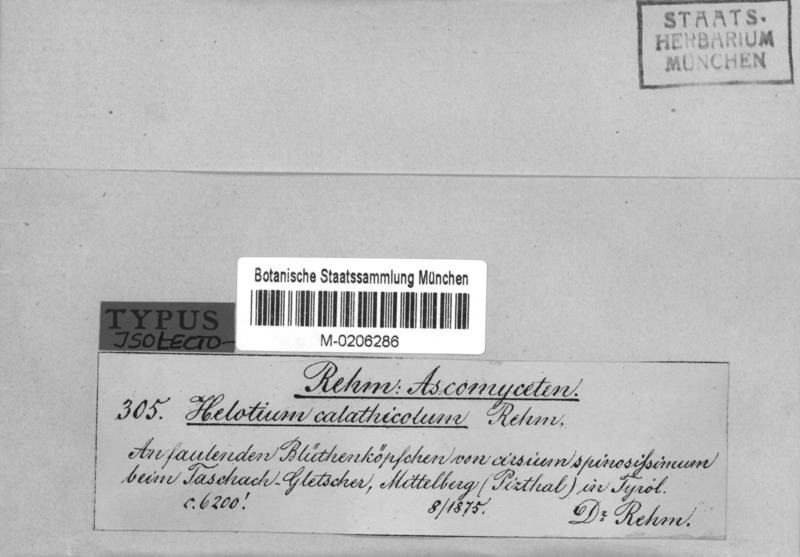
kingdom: Fungi
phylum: Ascomycota
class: Leotiomycetes
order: Helotiales
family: Helotiaceae
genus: Cyathicula
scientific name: Cyathicula calathicola
